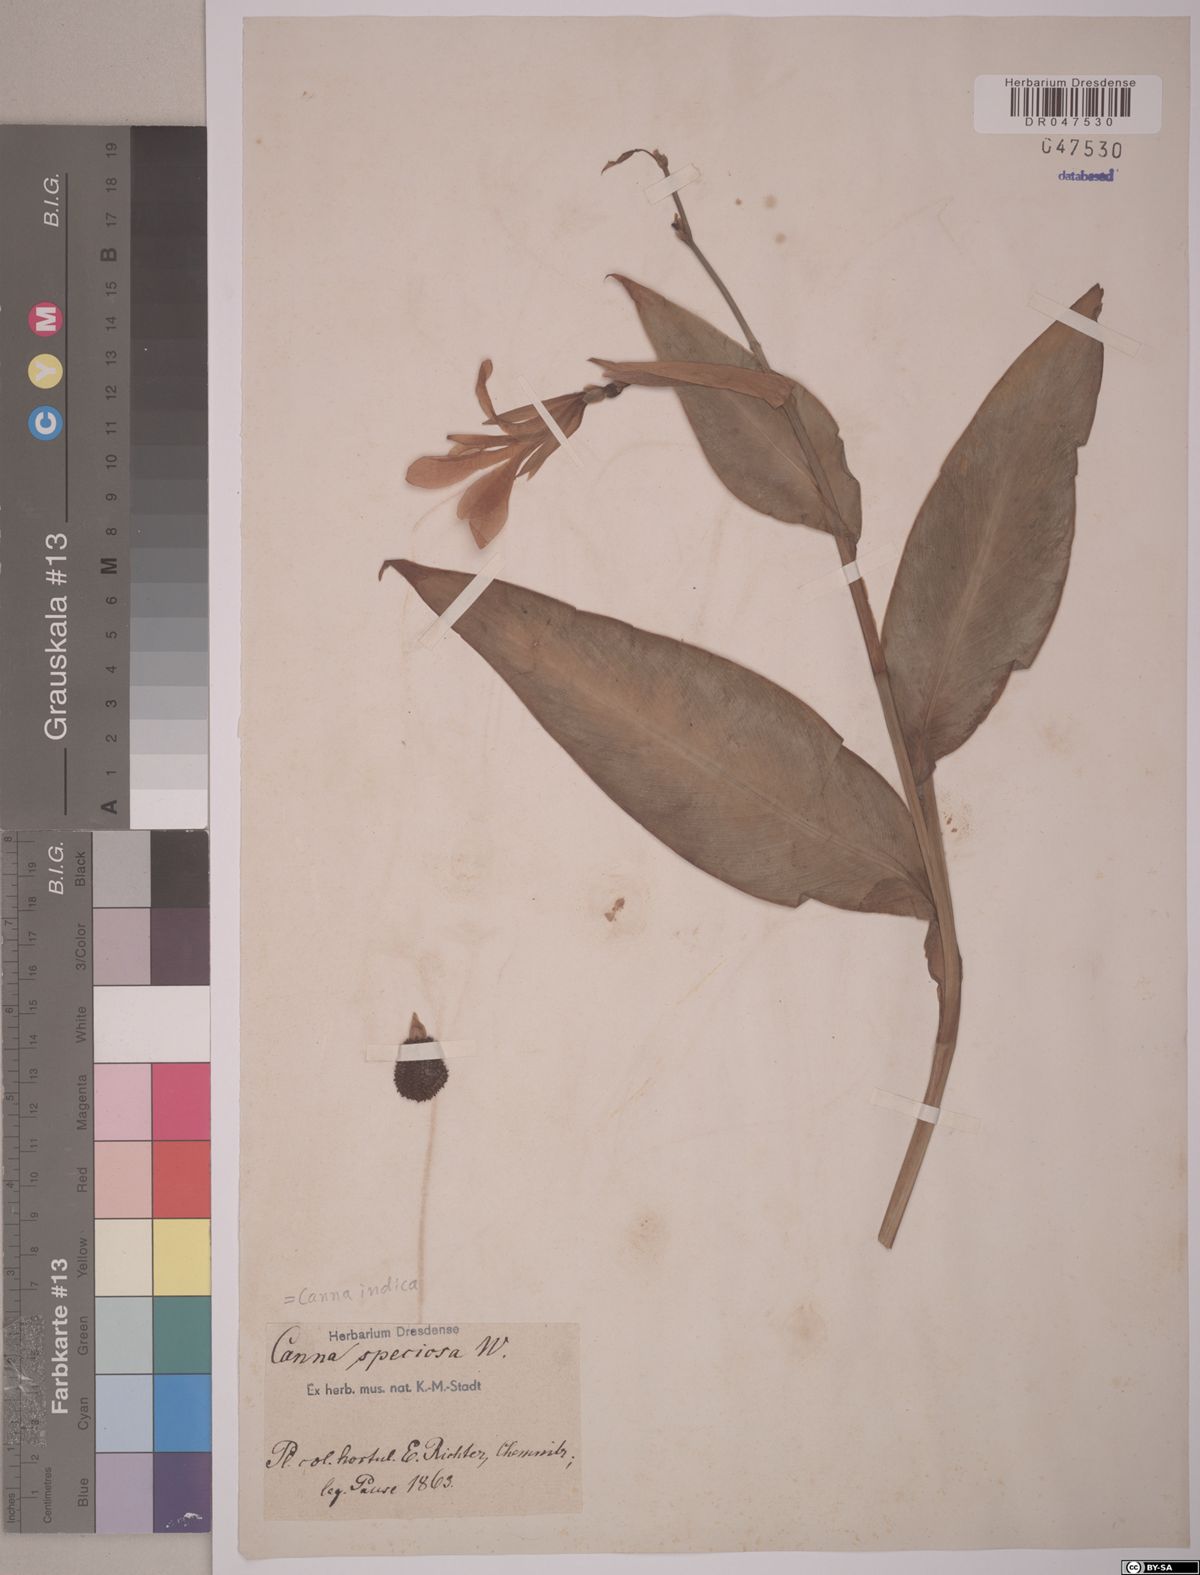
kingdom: Plantae
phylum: Tracheophyta
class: Liliopsida
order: Zingiberales
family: Cannaceae
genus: Canna
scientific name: Canna indica
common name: Indian shot
